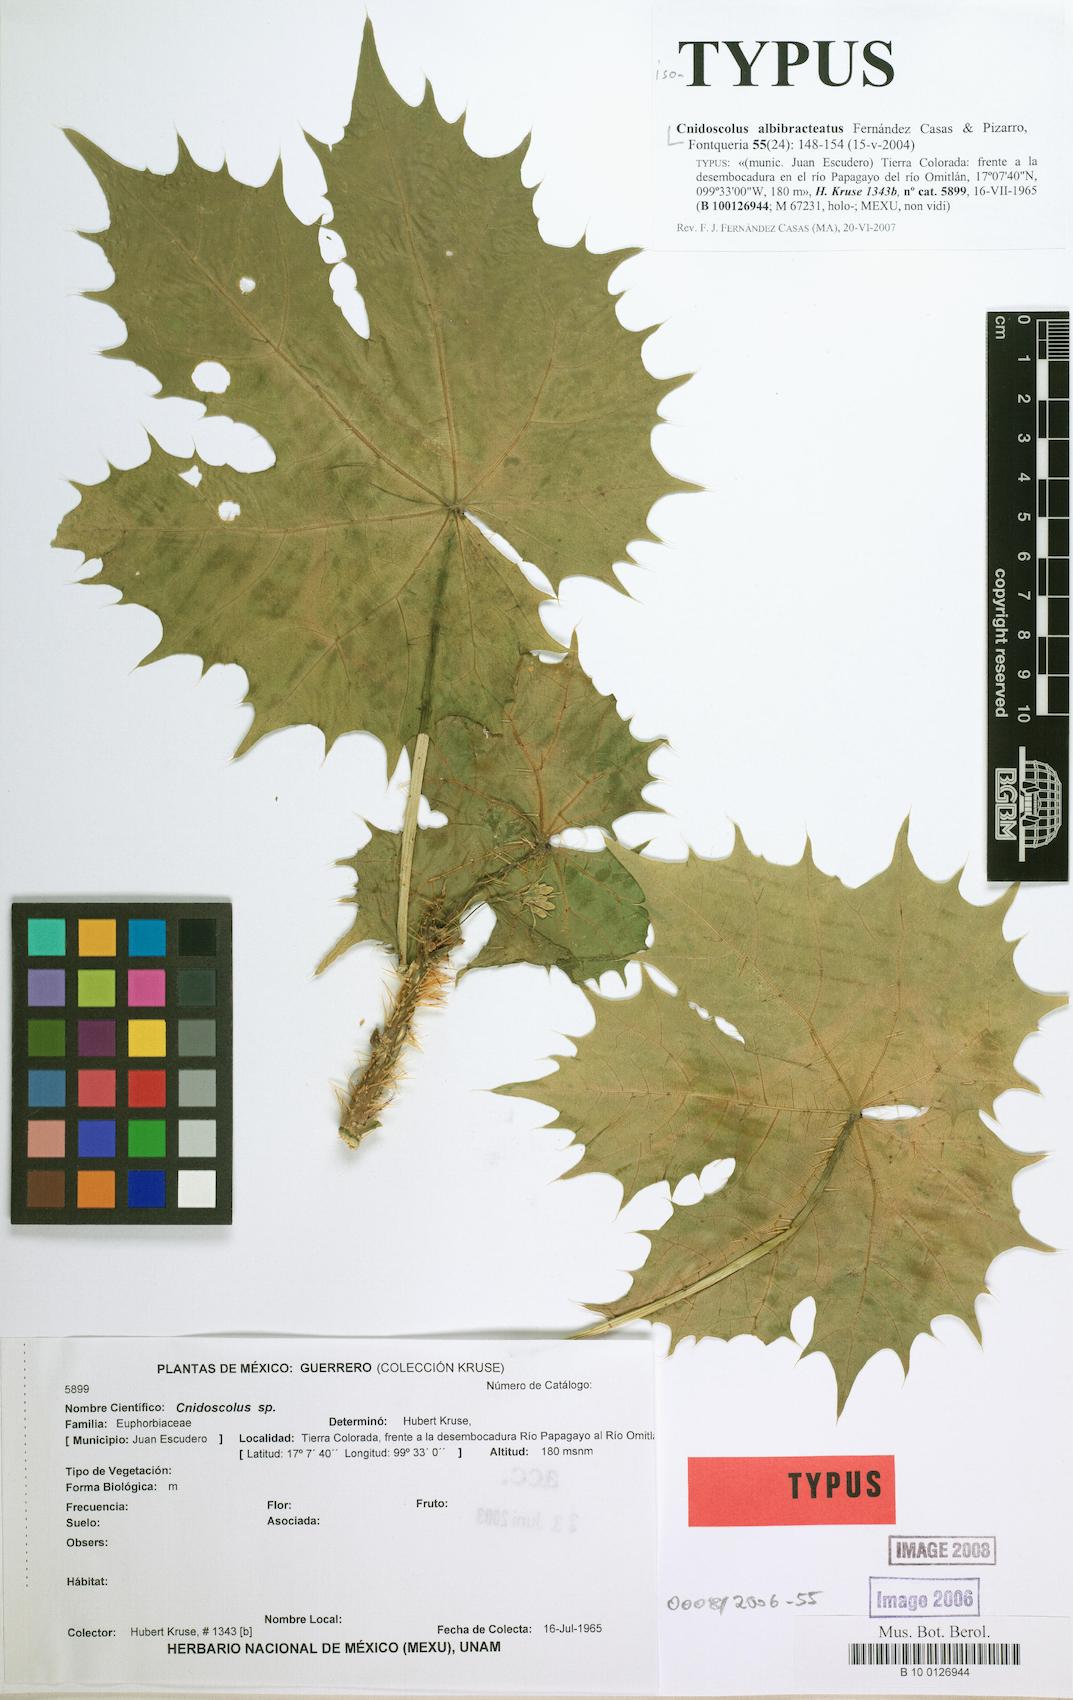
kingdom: Plantae
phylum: Tracheophyta
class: Magnoliopsida
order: Malvales
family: Malvaceae
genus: Hampea
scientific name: Hampea stipitata
